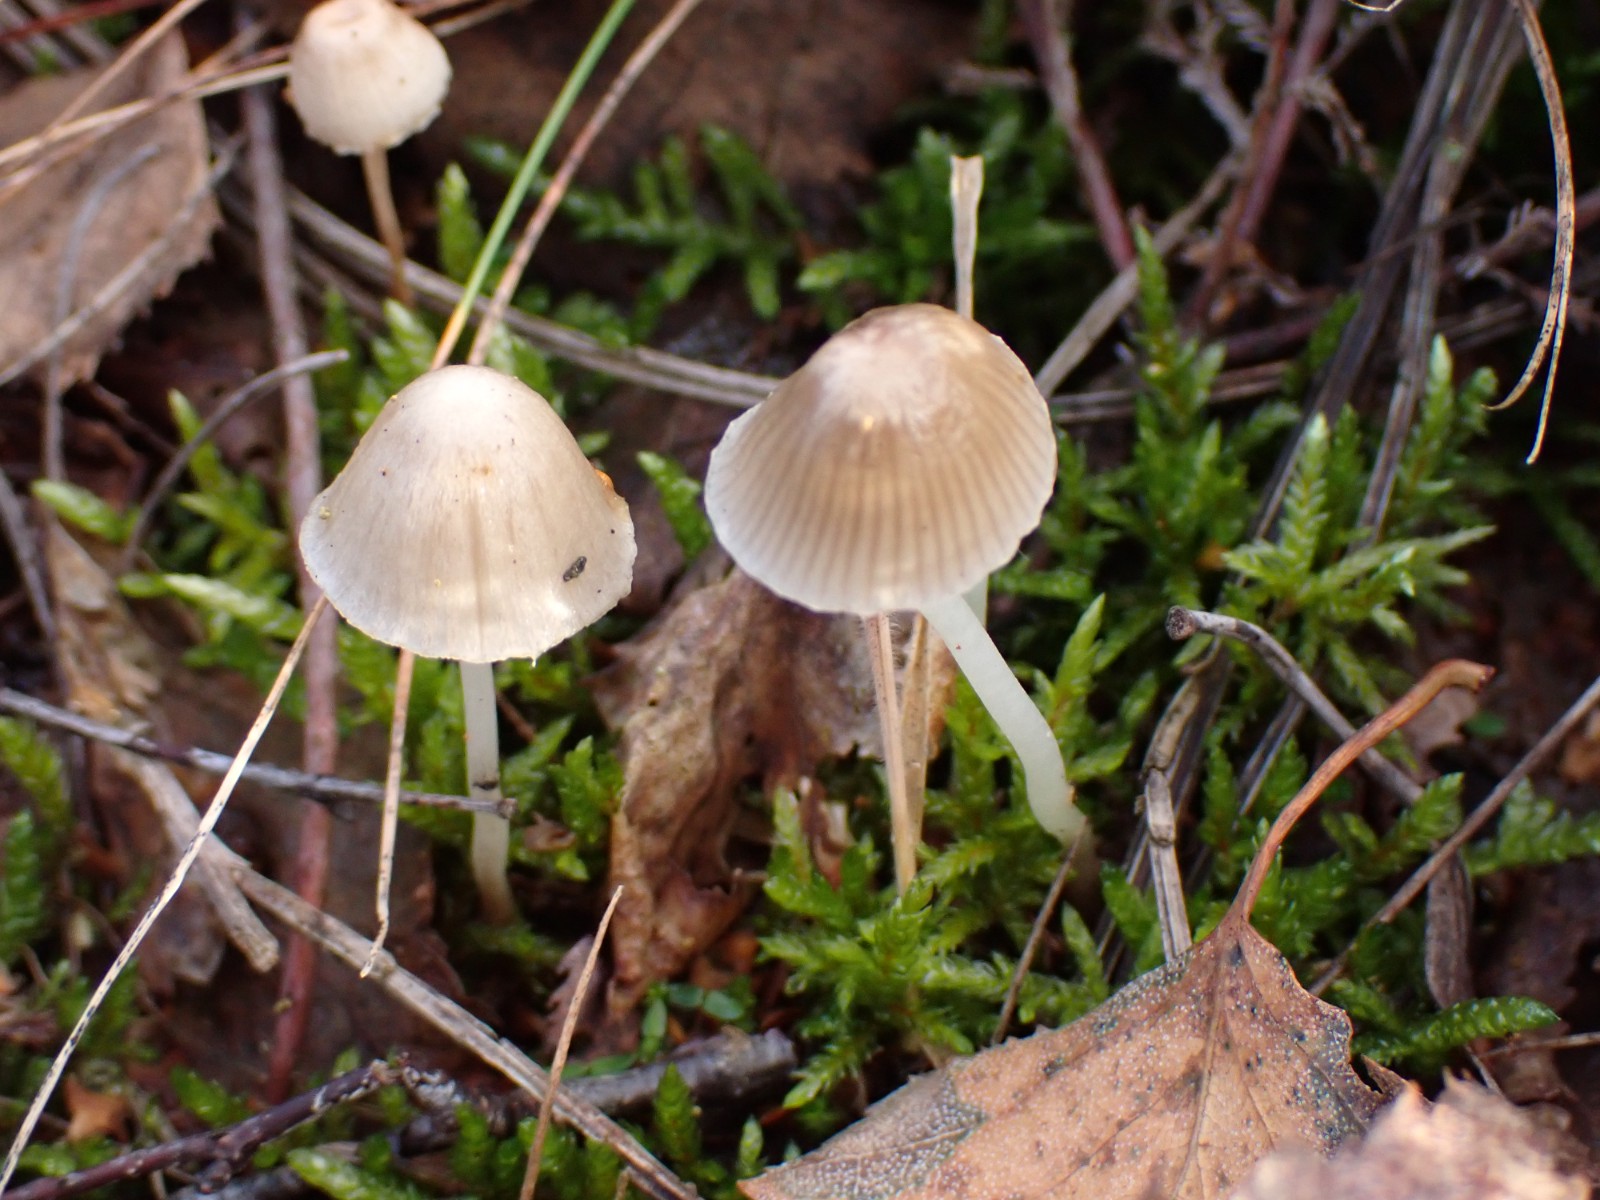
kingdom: Fungi
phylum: Basidiomycota
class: Agaricomycetes
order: Agaricales
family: Mycenaceae
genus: Mycena
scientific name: Mycena epipterygia
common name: gulstokket huesvamp
